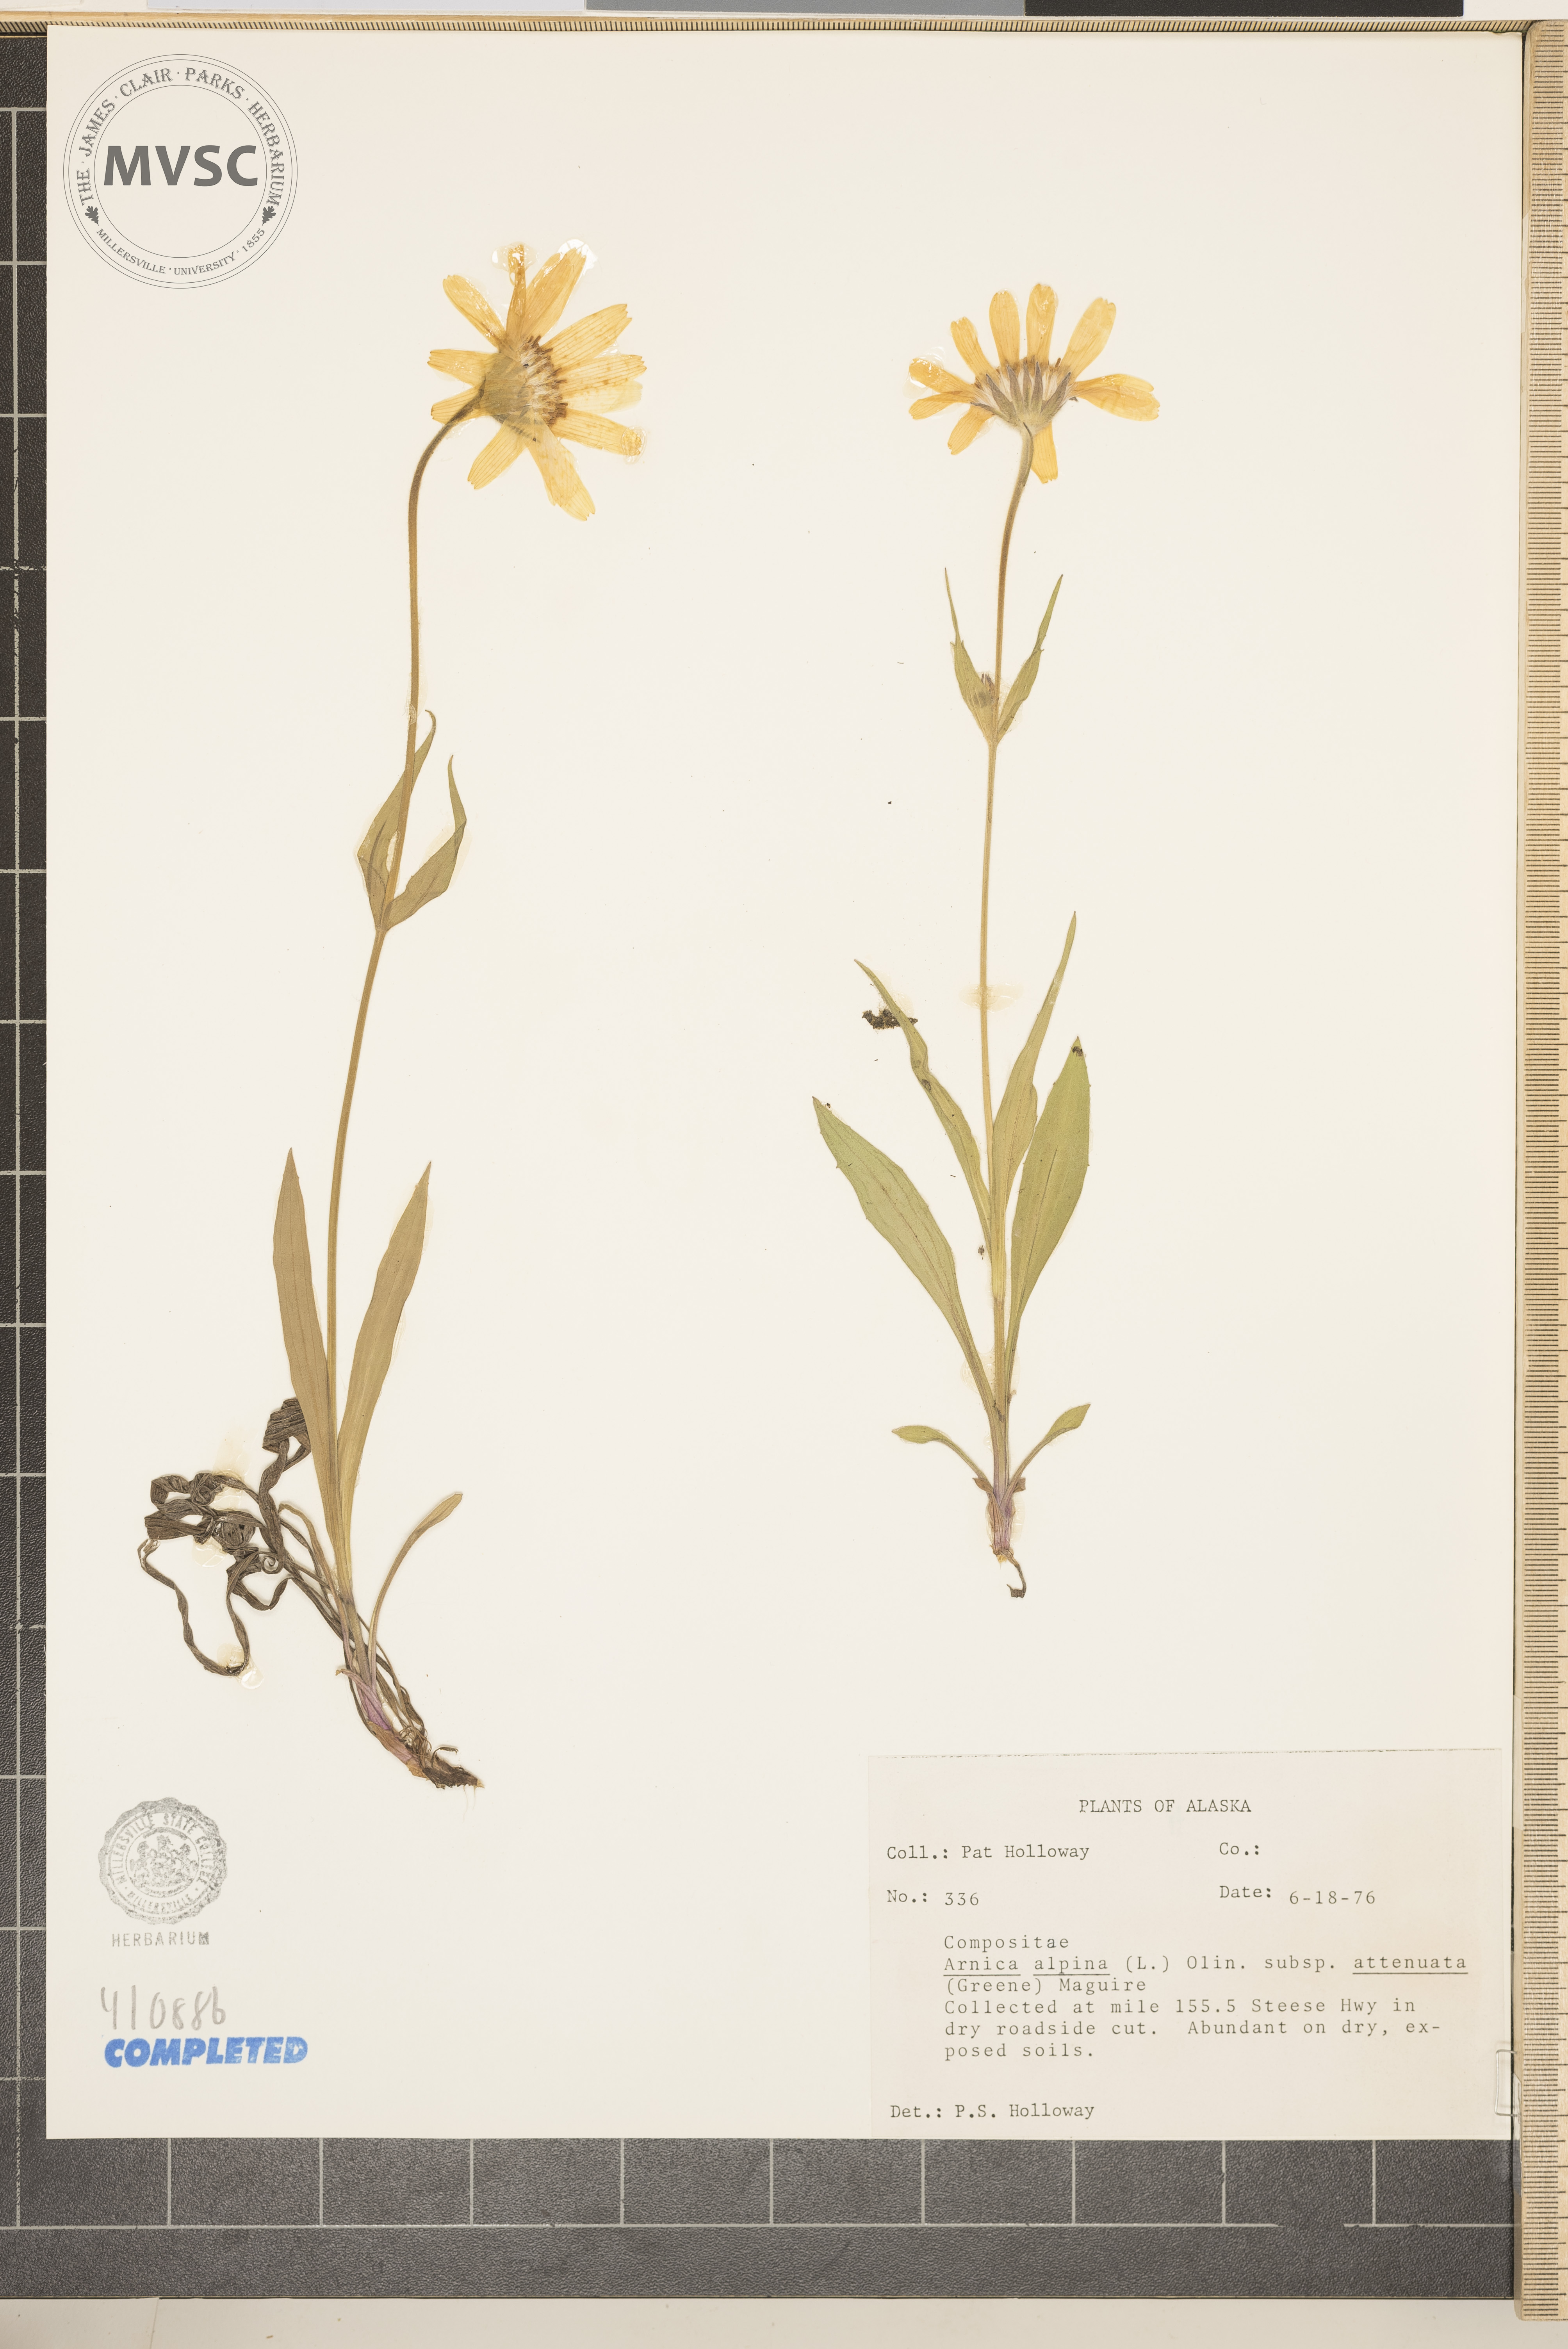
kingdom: Plantae
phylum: Tracheophyta
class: Magnoliopsida
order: Asterales
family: Asteraceae
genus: Arnica
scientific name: Arnica
